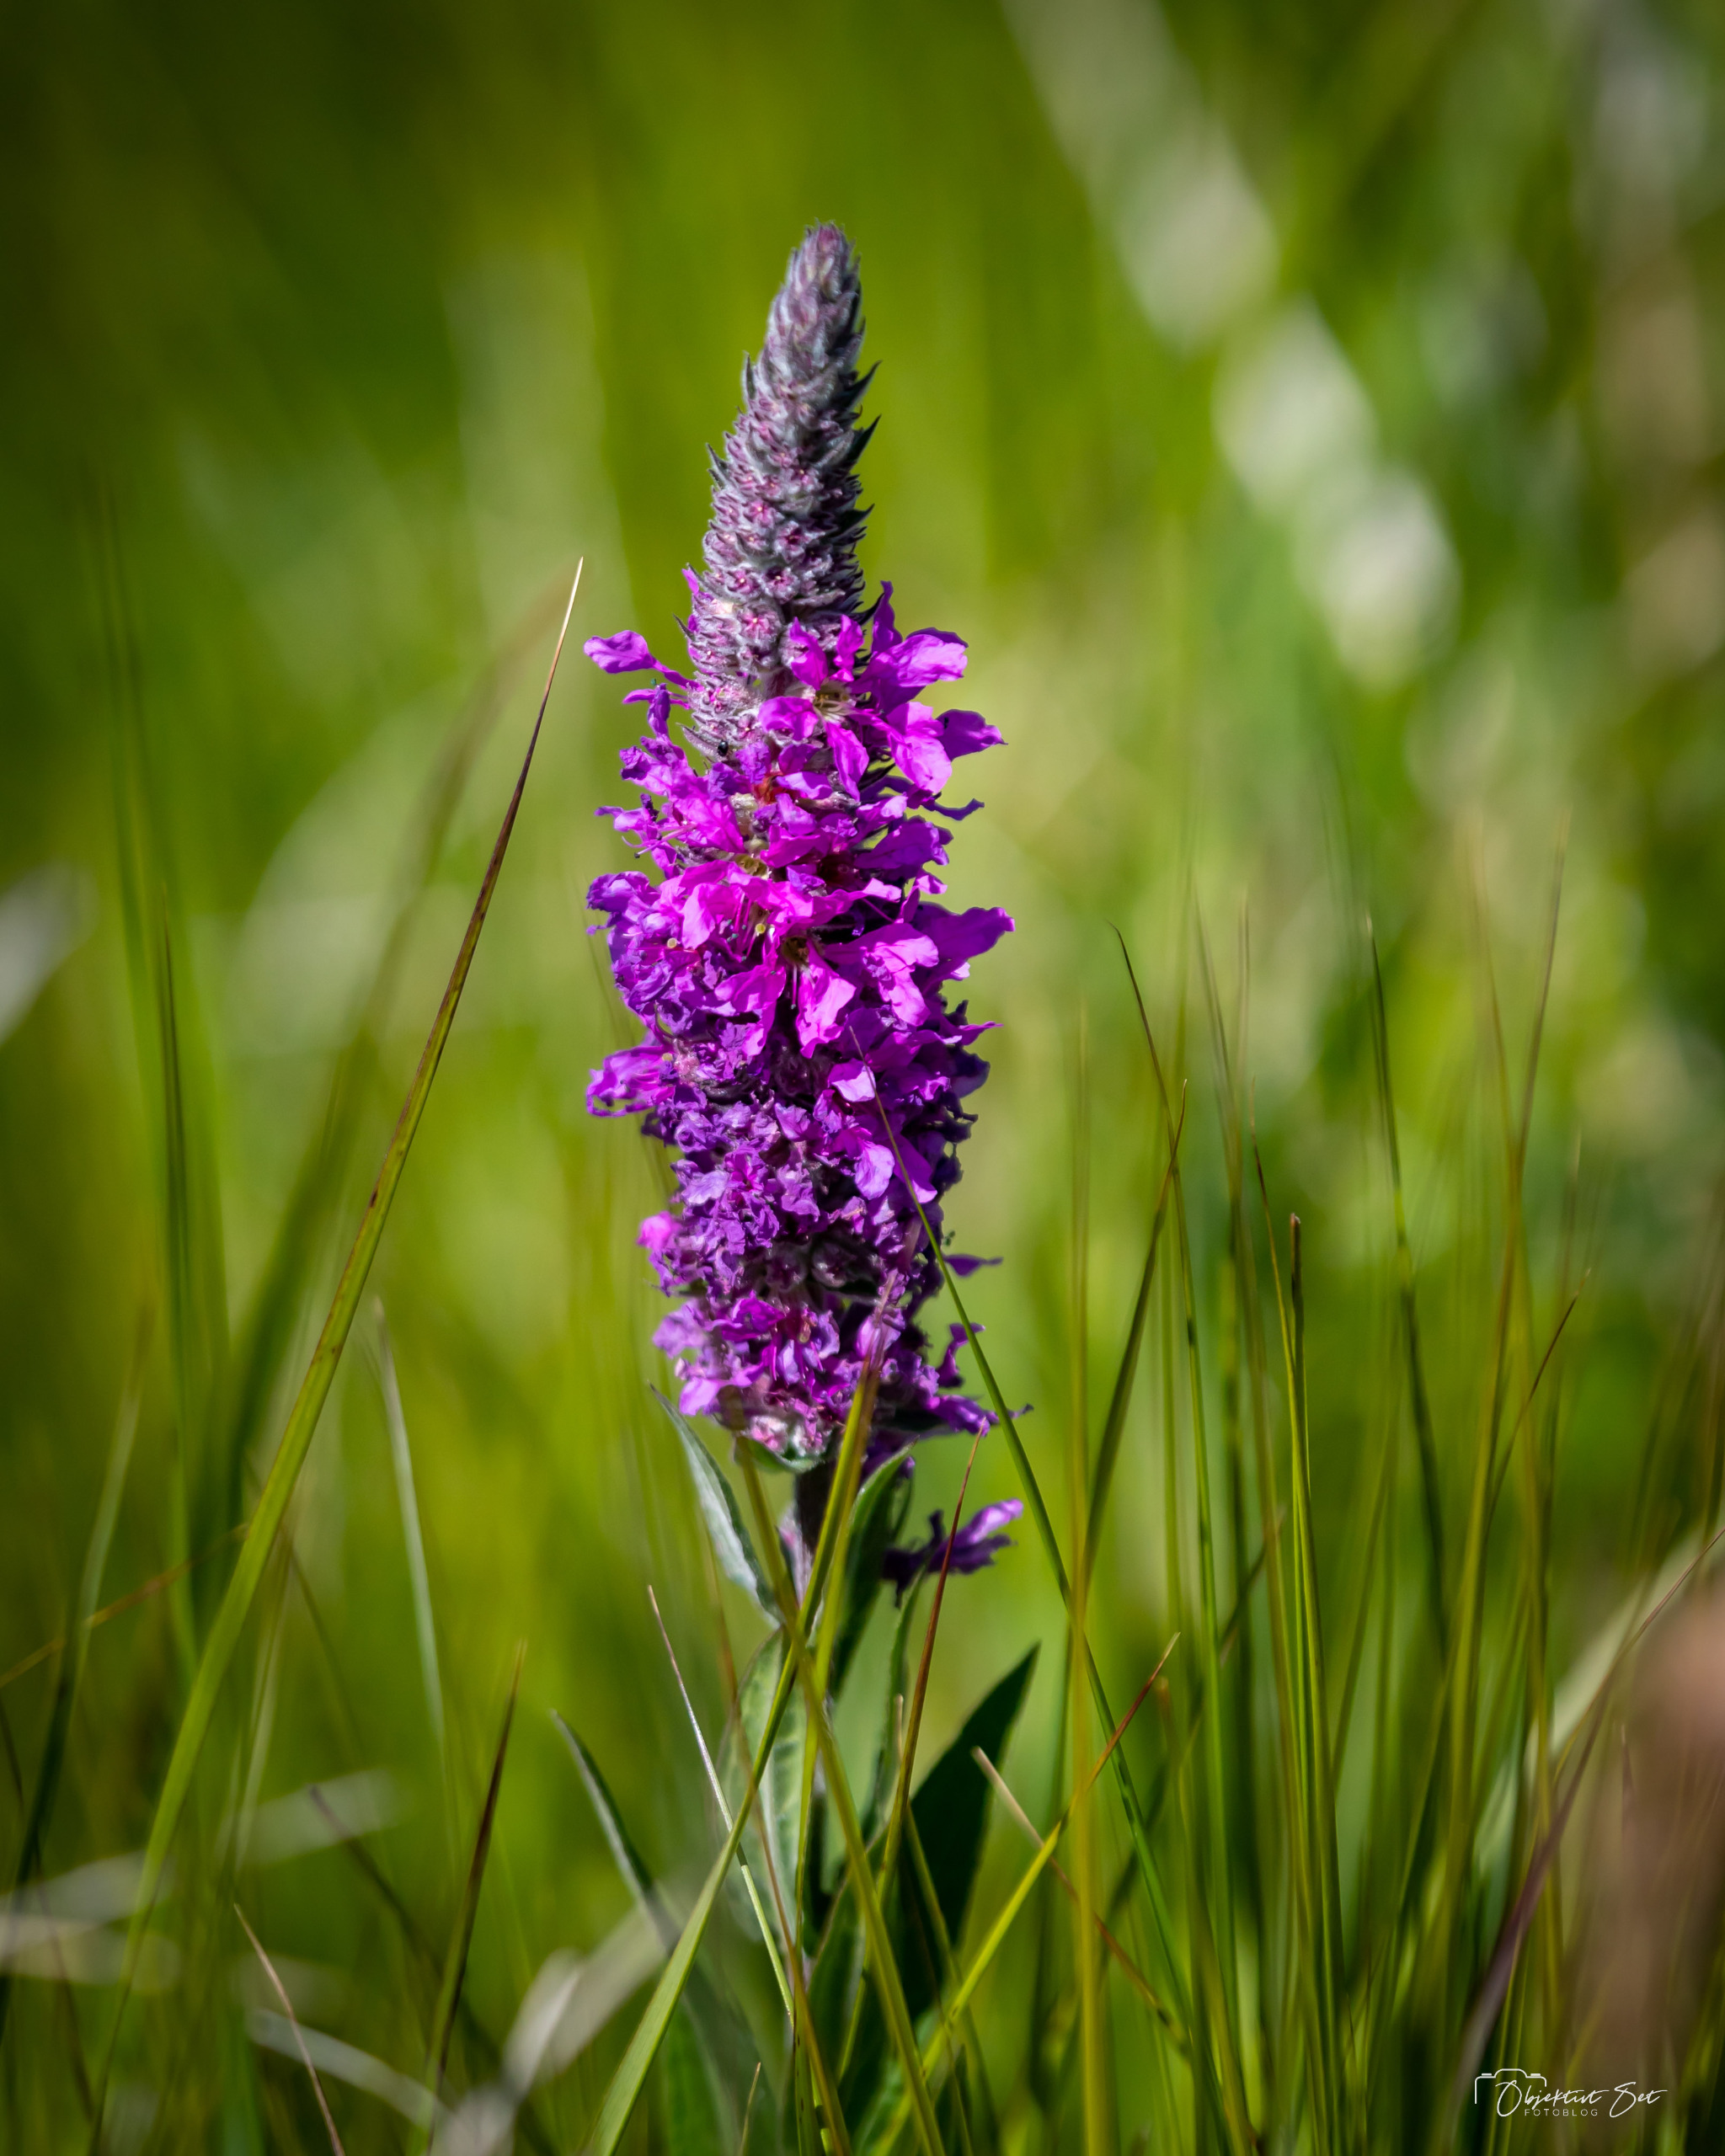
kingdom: Plantae
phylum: Tracheophyta
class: Magnoliopsida
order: Myrtales
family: Lythraceae
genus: Lythrum
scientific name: Lythrum salicaria
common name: Kattehale
